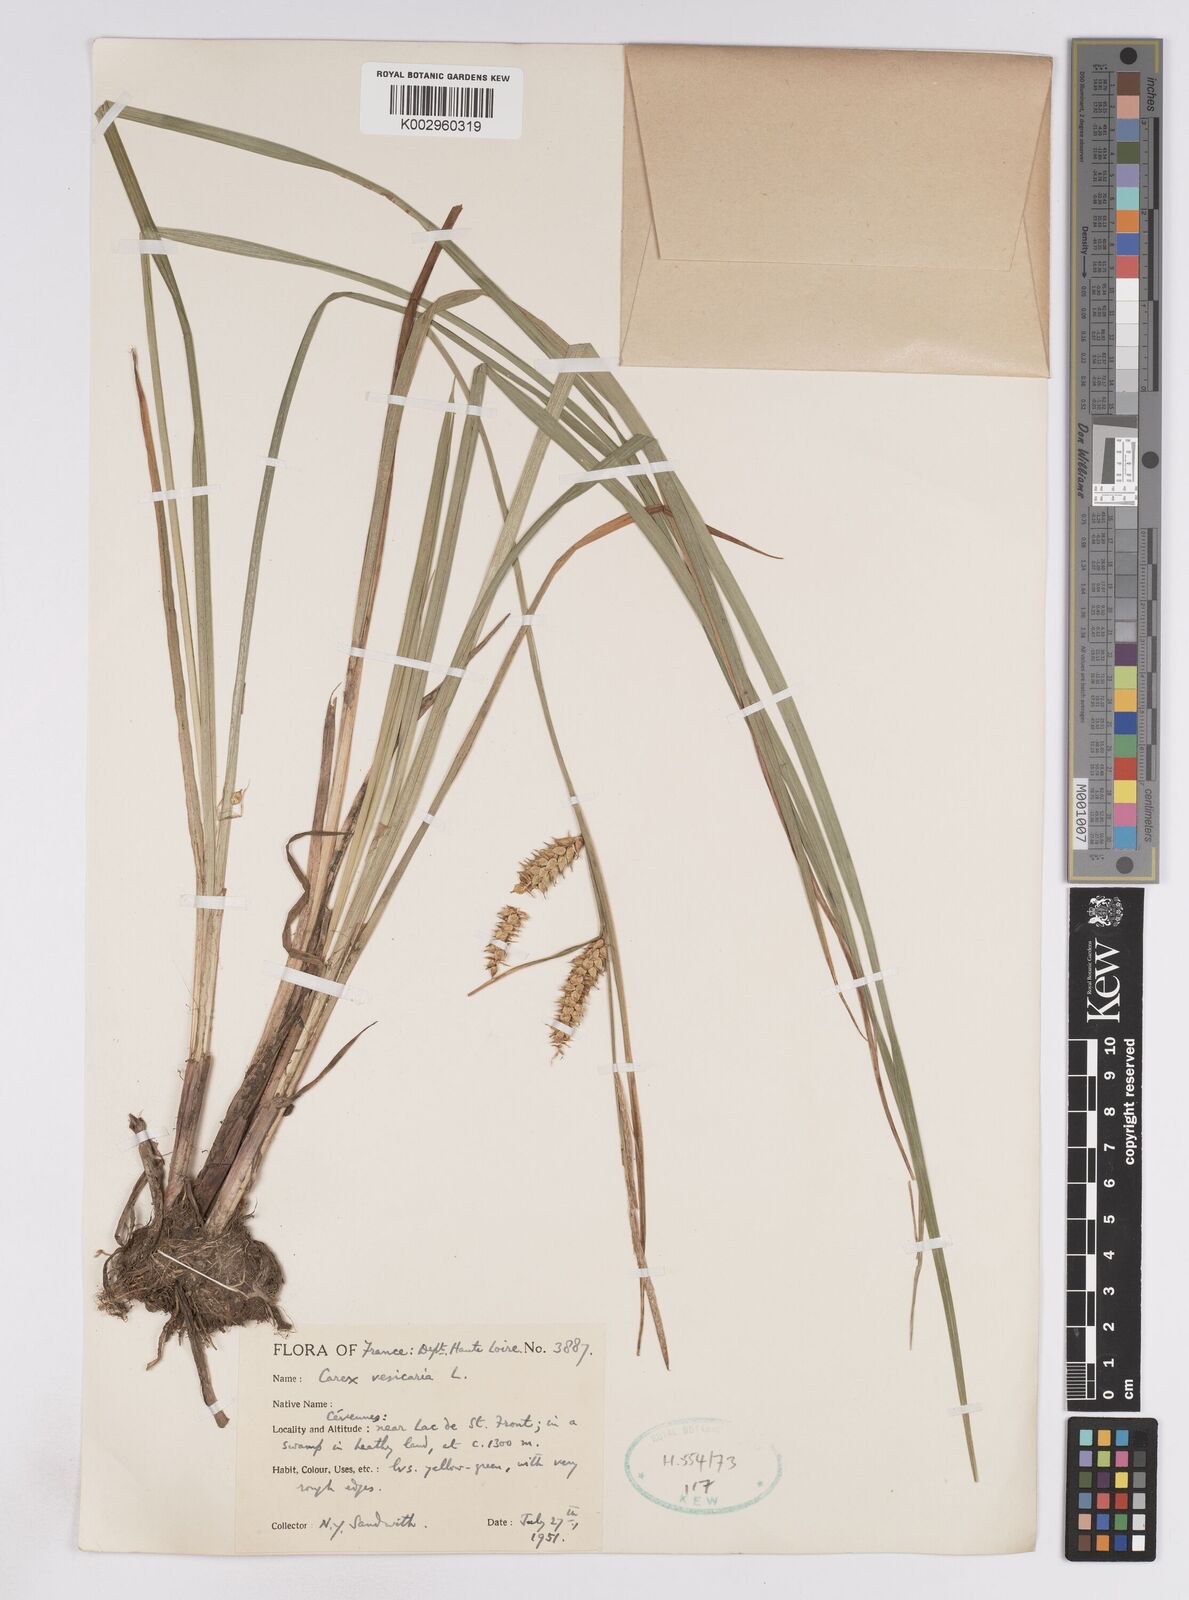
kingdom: Plantae
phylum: Tracheophyta
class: Liliopsida
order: Poales
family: Cyperaceae
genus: Carex
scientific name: Carex vesicaria
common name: Bladder-sedge
